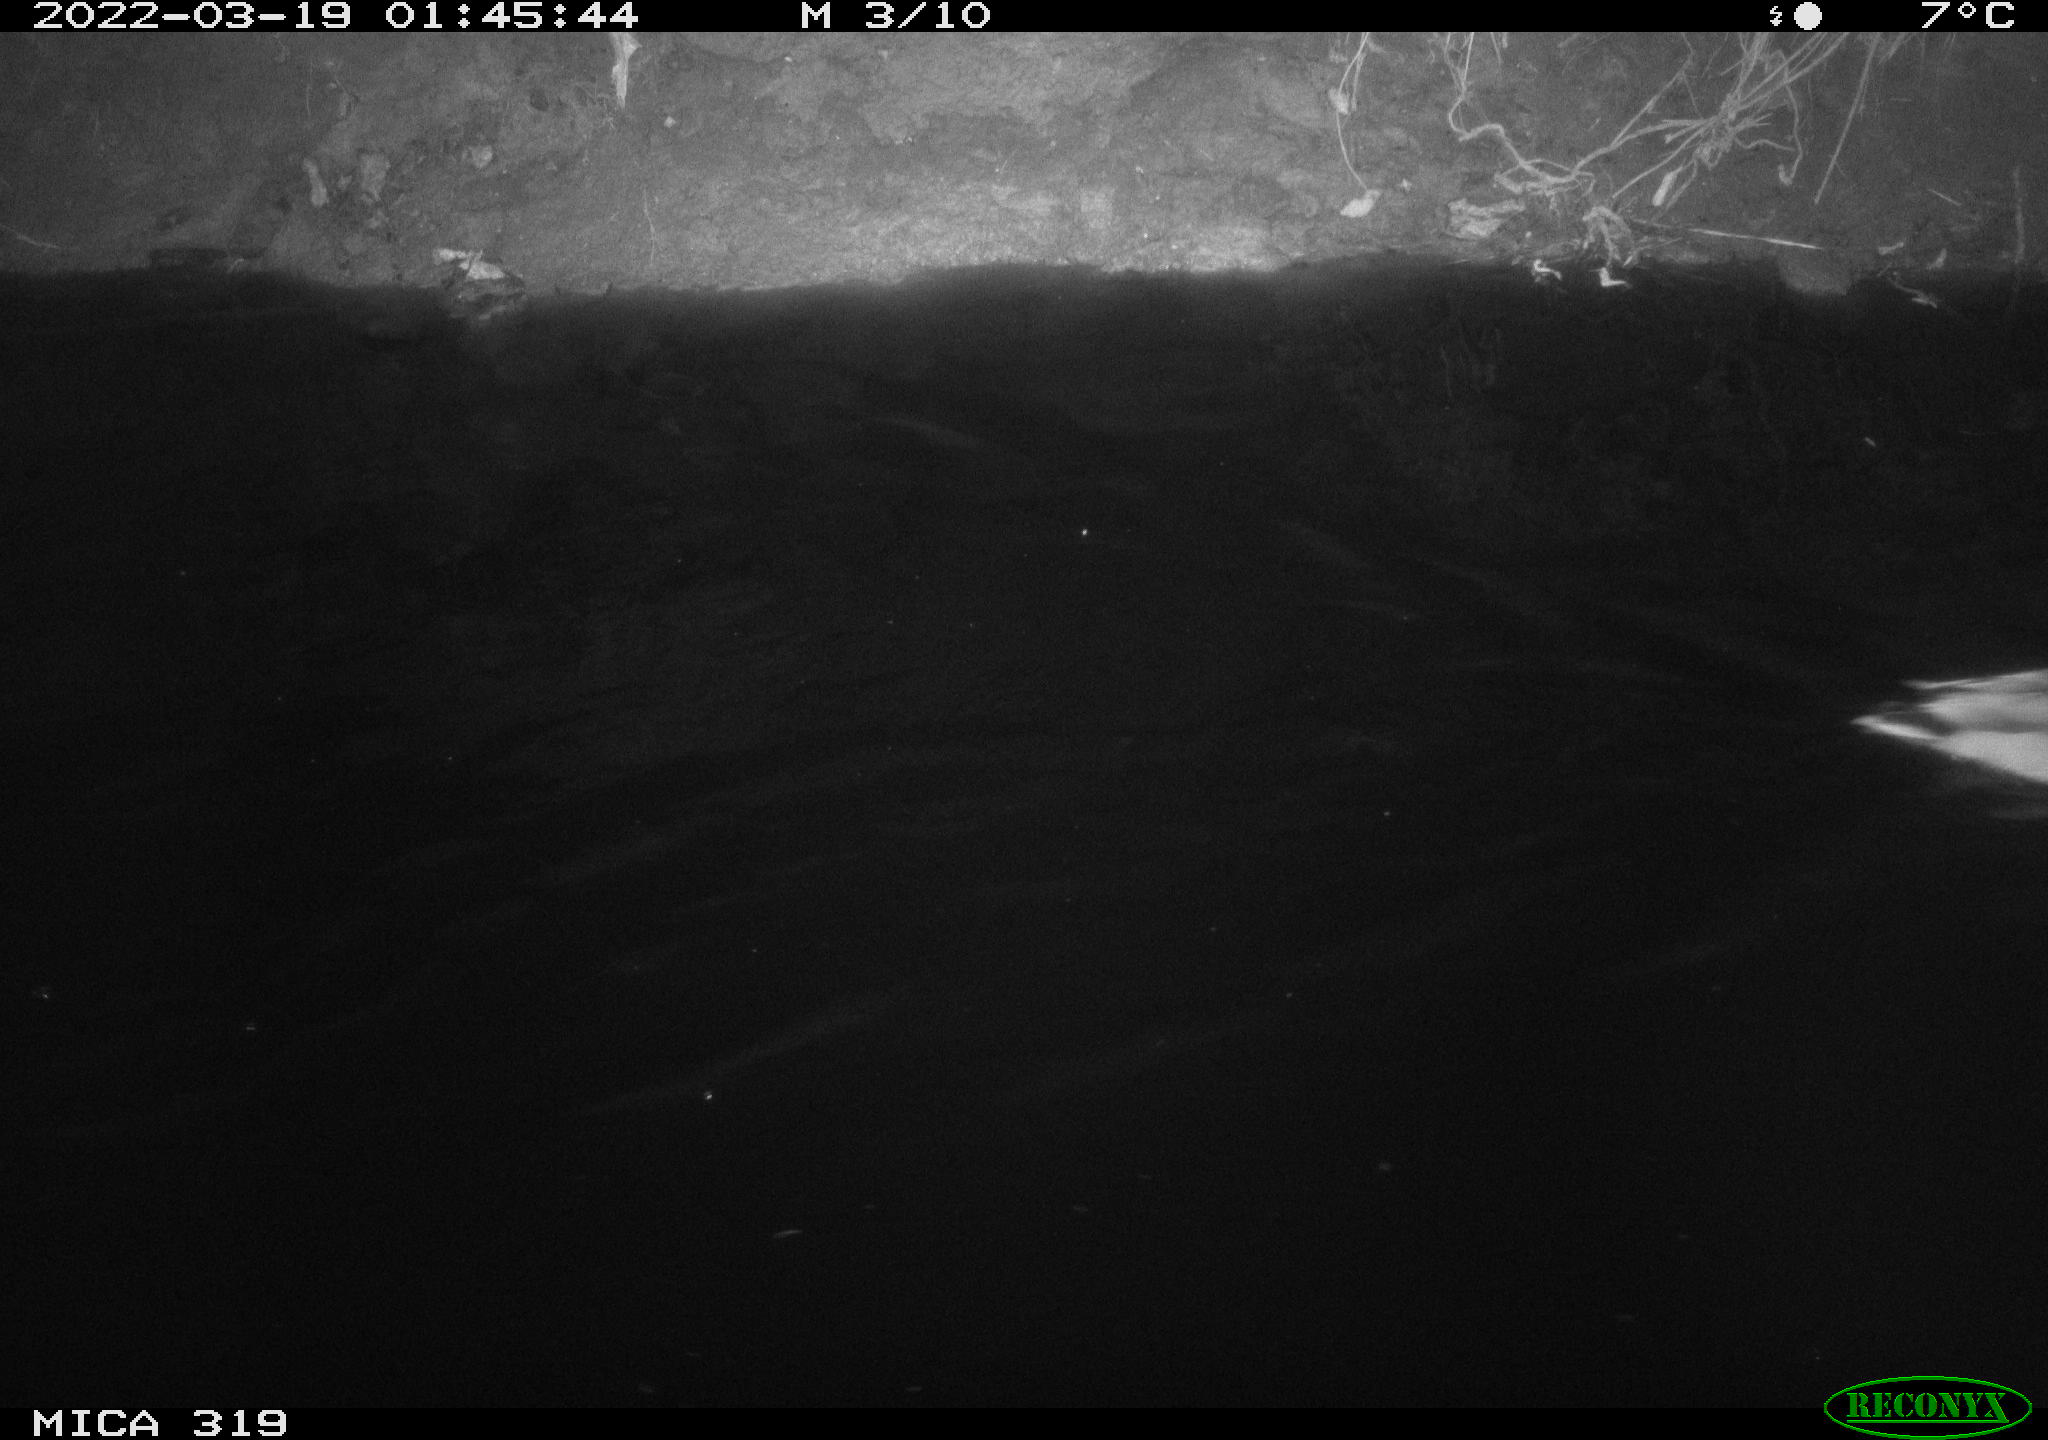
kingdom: Animalia
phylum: Chordata
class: Aves
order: Anseriformes
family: Anatidae
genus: Anas
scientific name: Anas platyrhynchos
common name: Mallard
